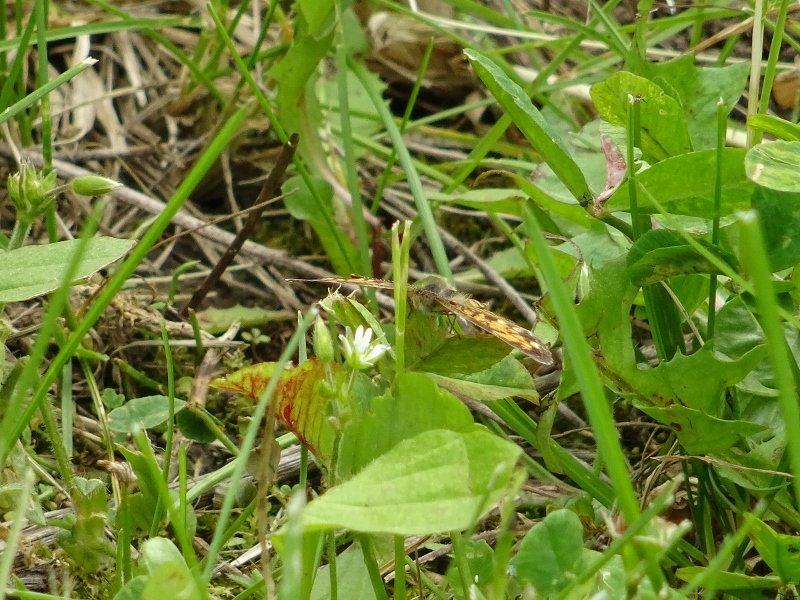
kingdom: Animalia
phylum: Arthropoda
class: Insecta
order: Lepidoptera
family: Nymphalidae
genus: Phyciodes
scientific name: Phyciodes
